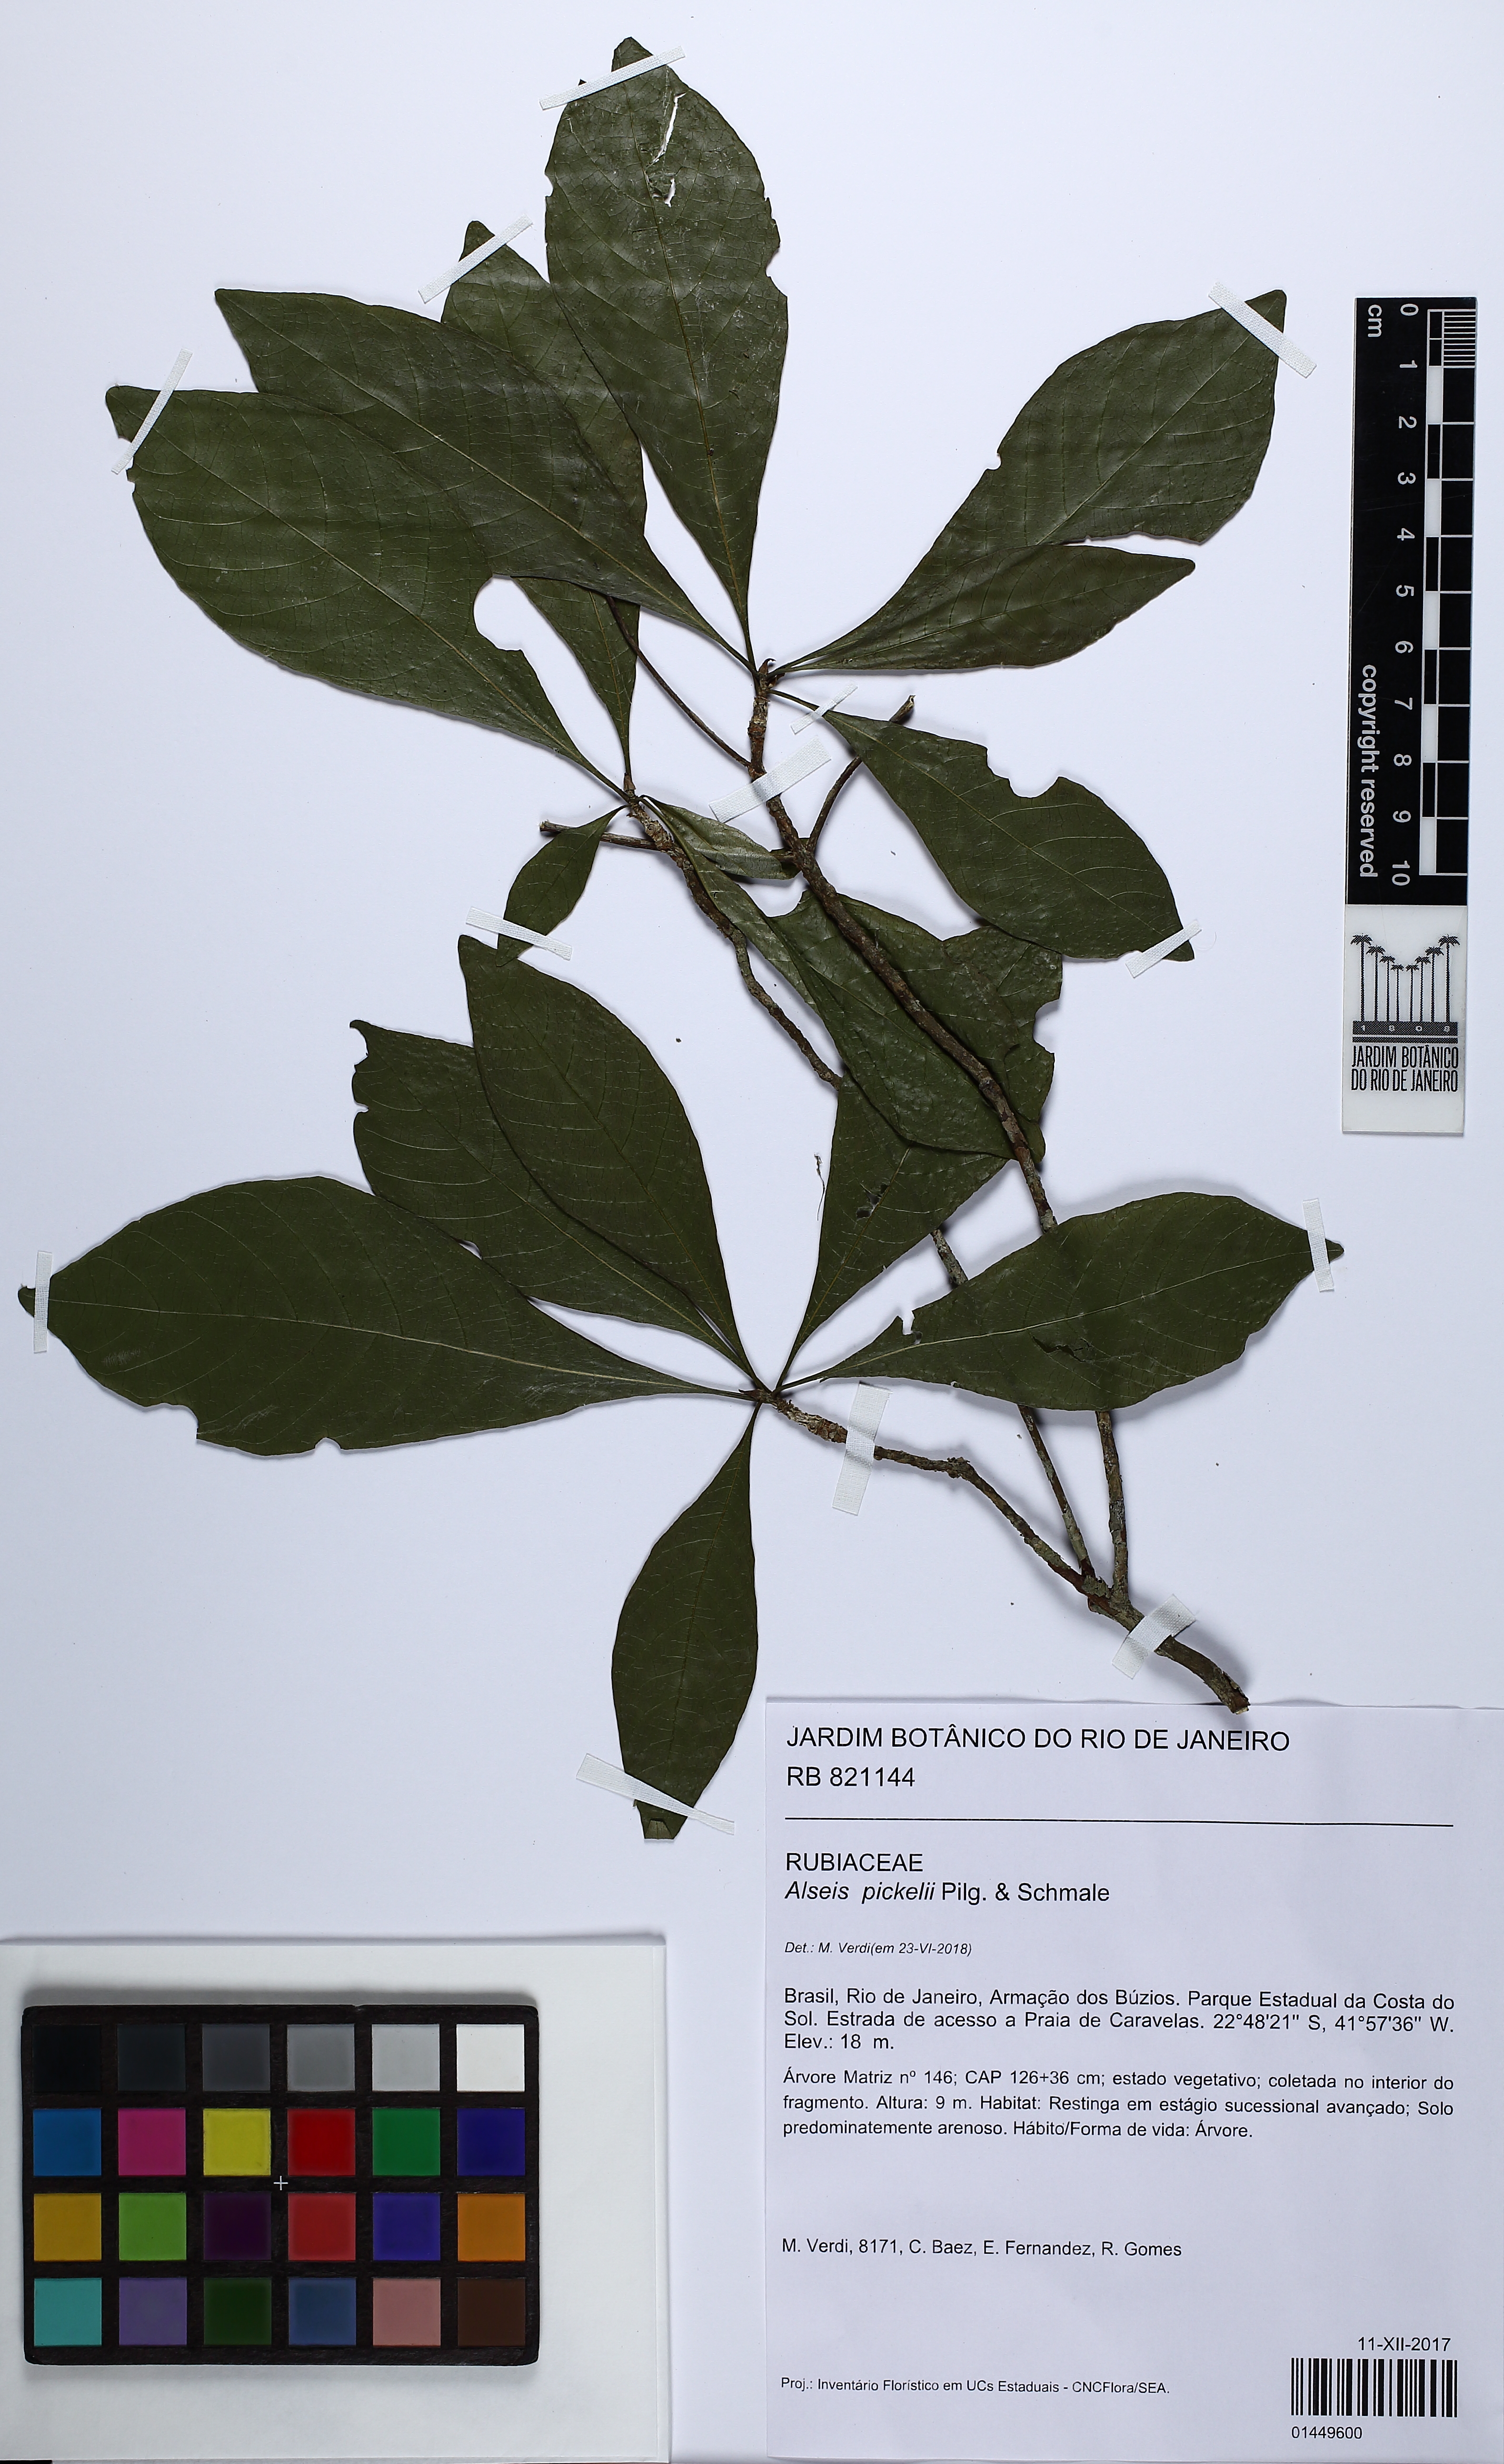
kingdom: Plantae
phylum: Tracheophyta
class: Magnoliopsida
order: Gentianales
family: Rubiaceae
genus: Alseis
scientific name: Alseis pickelii
